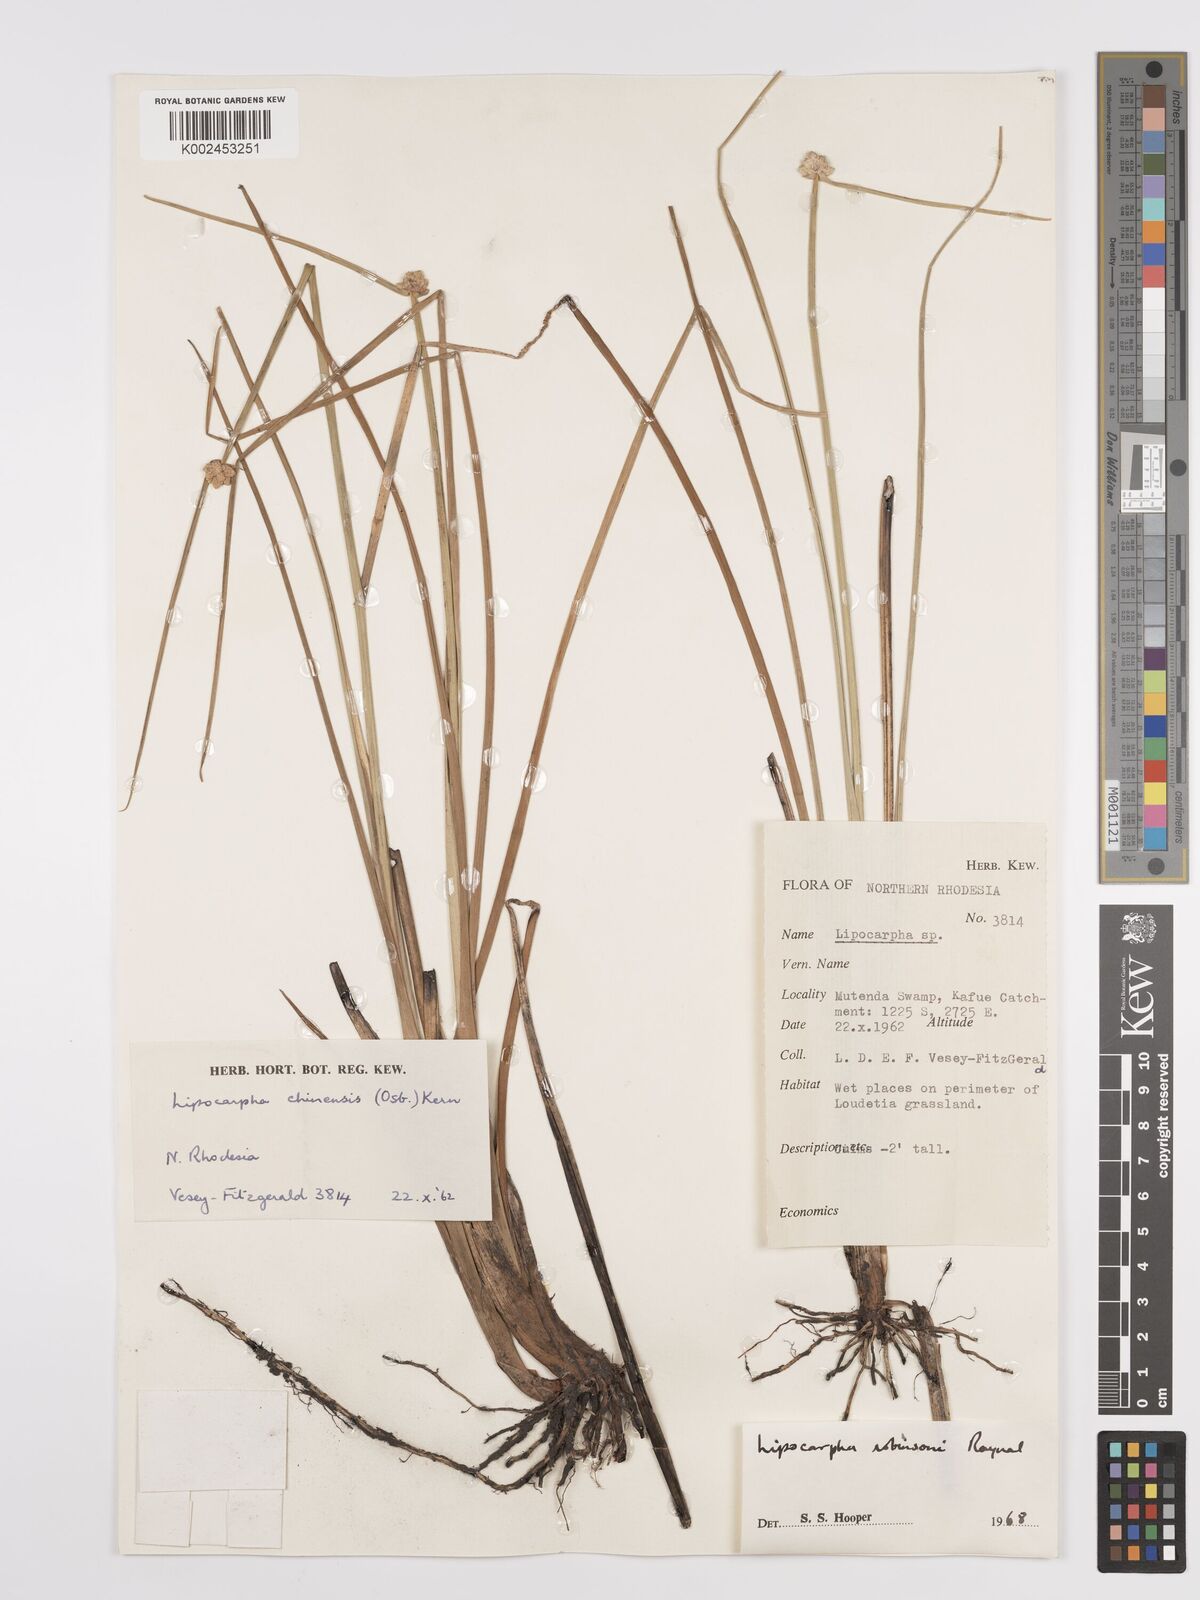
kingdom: Plantae
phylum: Tracheophyta
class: Liliopsida
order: Poales
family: Cyperaceae
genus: Cyperus
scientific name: Cyperus tenuiculmis
